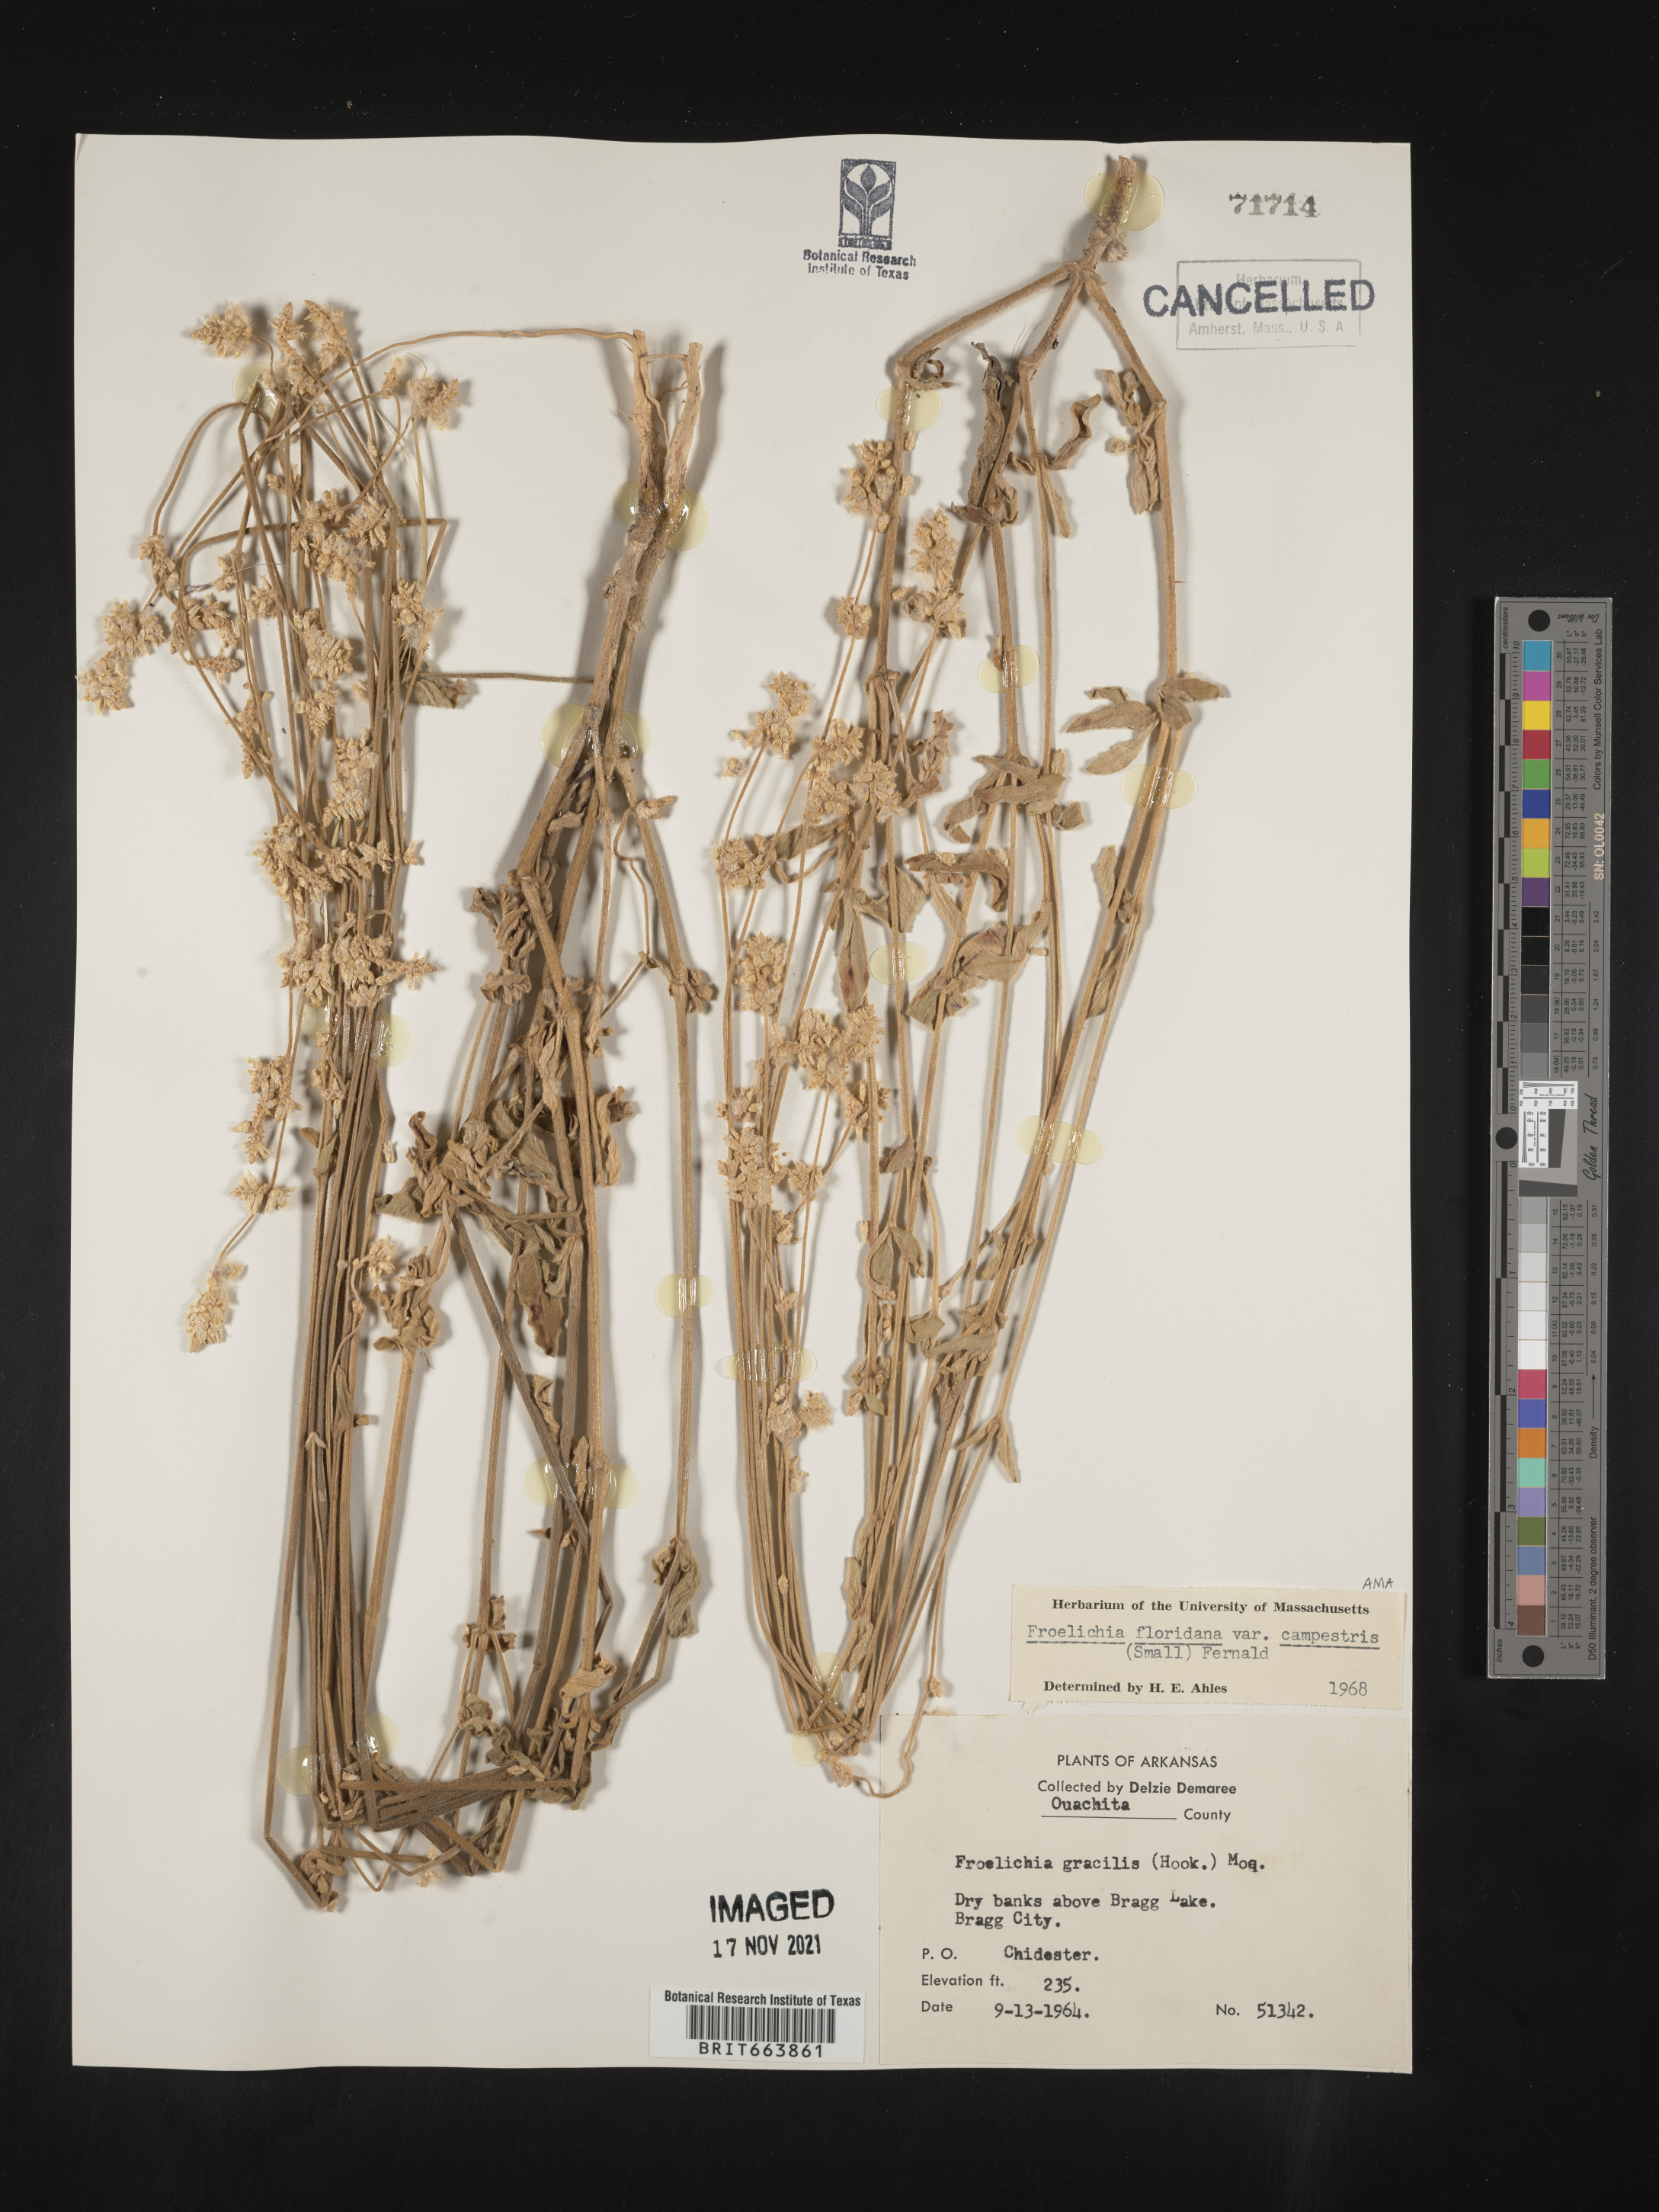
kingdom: Plantae
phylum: Tracheophyta
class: Magnoliopsida
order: Caryophyllales
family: Amaranthaceae
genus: Froelichia
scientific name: Froelichia floridana
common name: Florida snake-cotton
